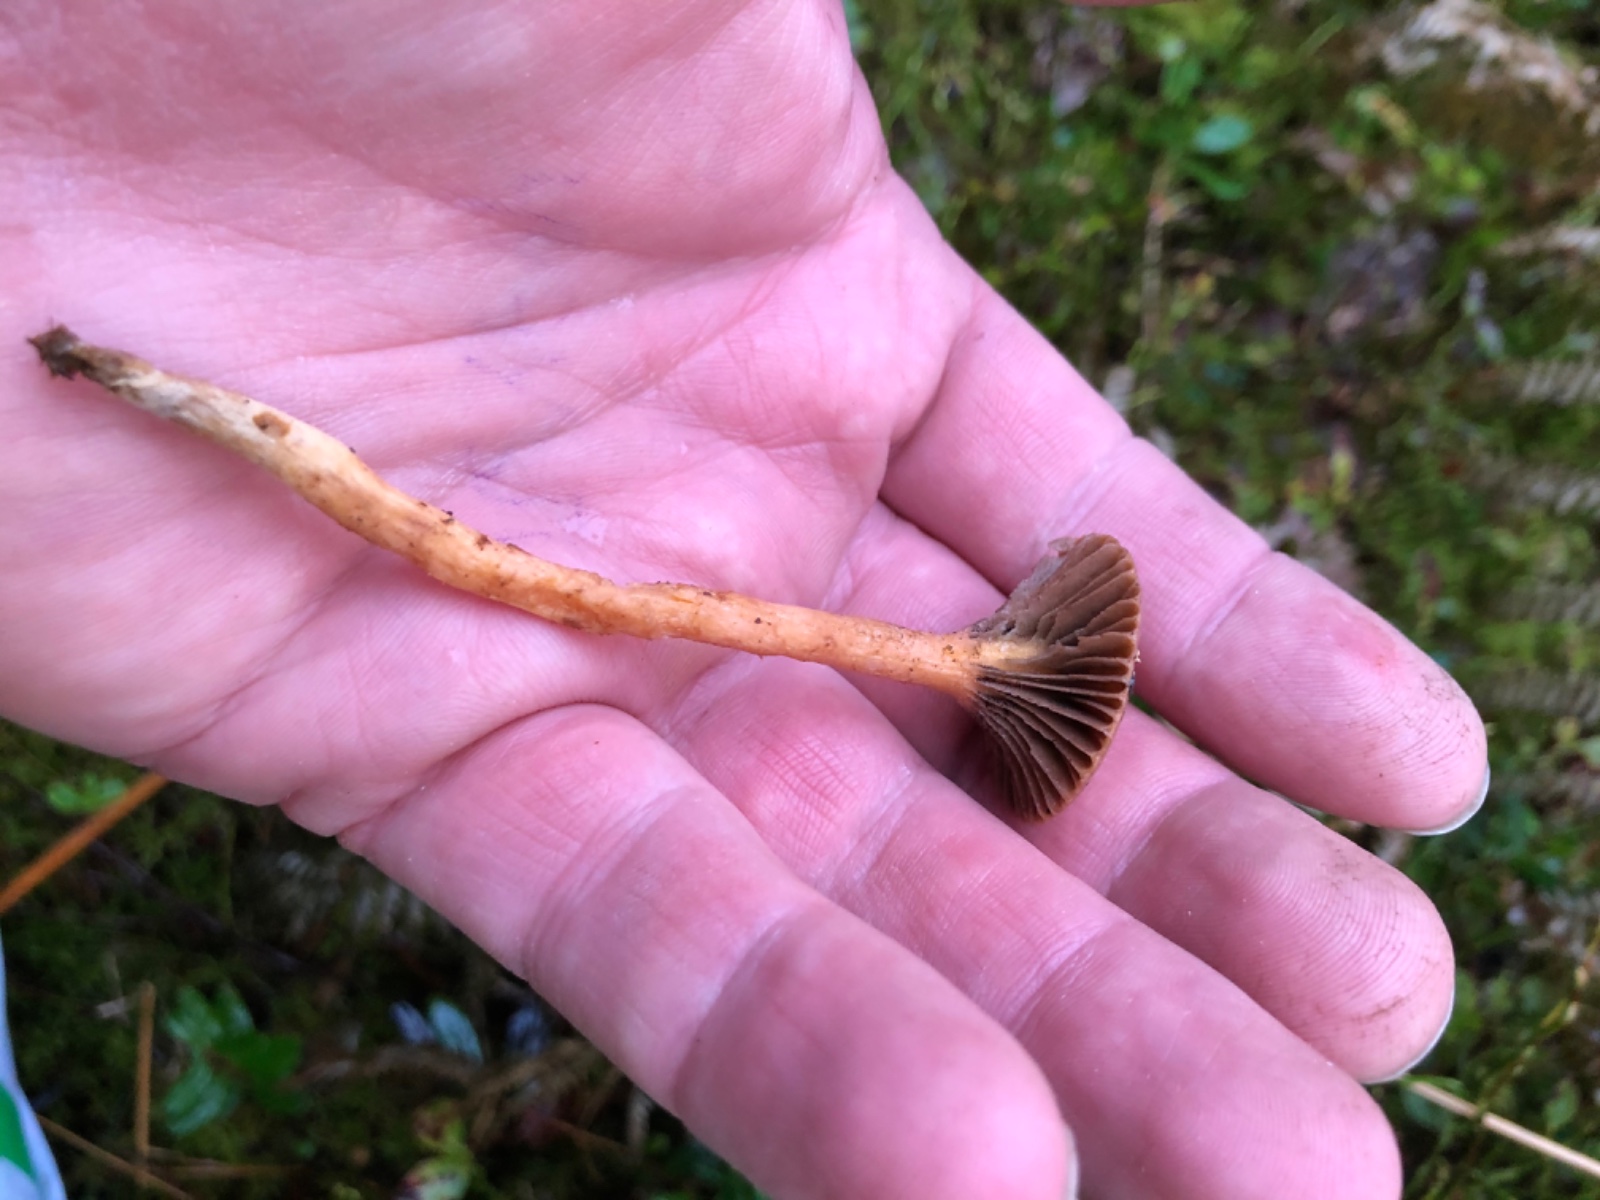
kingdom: Fungi
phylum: Basidiomycota
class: Agaricomycetes
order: Boletales
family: Gomphidiaceae
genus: Chroogomphus
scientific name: Chroogomphus rutilus
